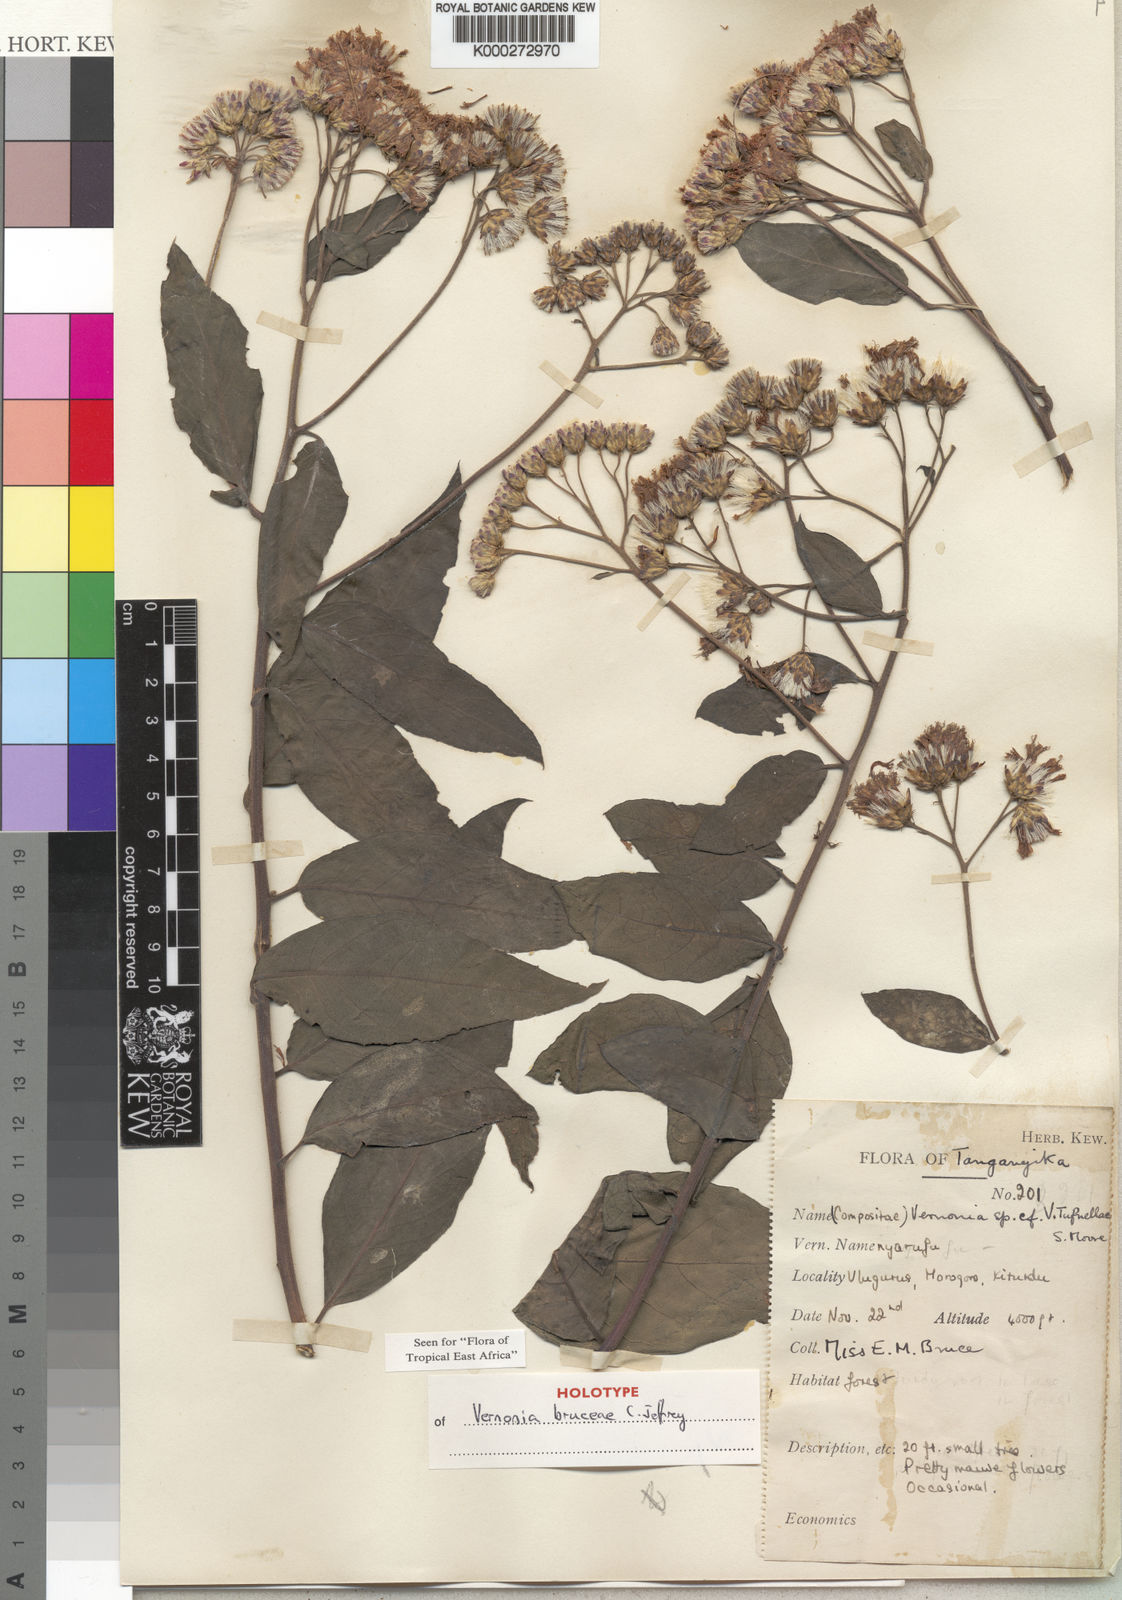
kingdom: Plantae
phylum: Tracheophyta
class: Magnoliopsida
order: Asterales
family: Asteraceae
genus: Vernonia
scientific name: Vernonia bruceae
